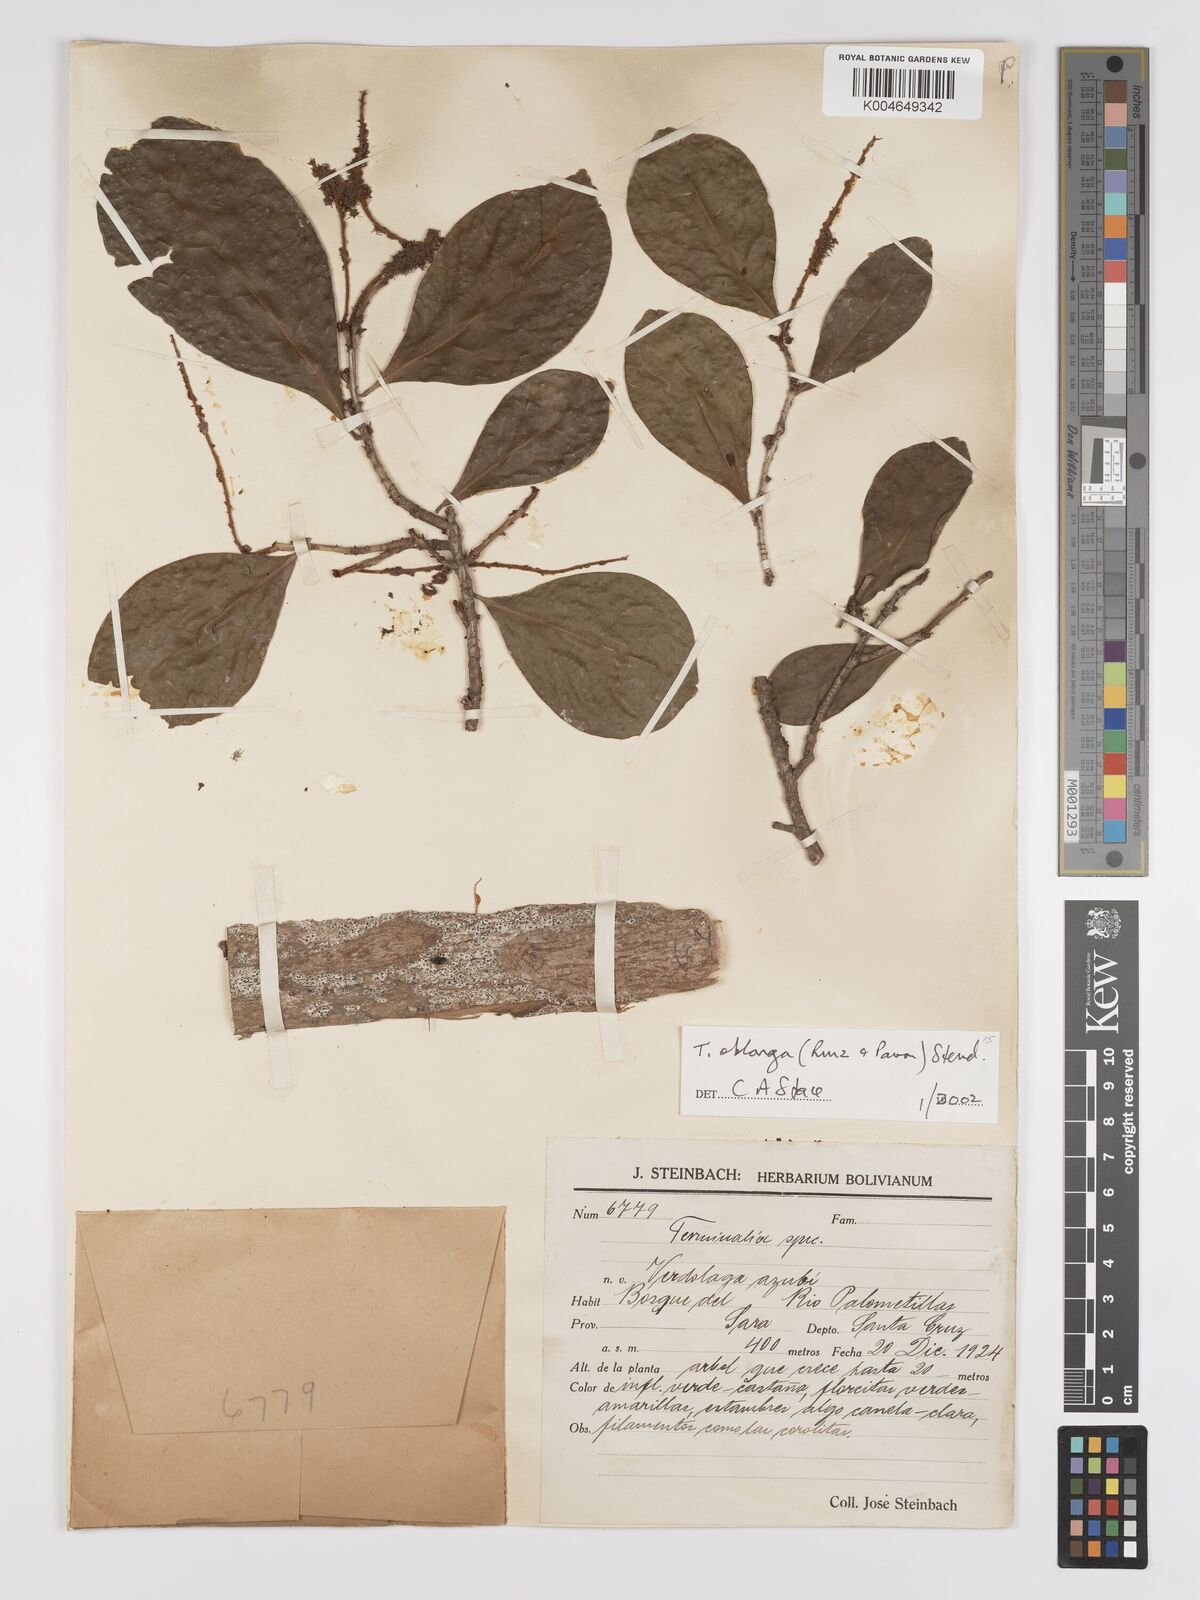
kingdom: Plantae
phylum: Tracheophyta
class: Magnoliopsida
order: Myrtales
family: Combretaceae
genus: Terminalia
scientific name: Terminalia oblonga
